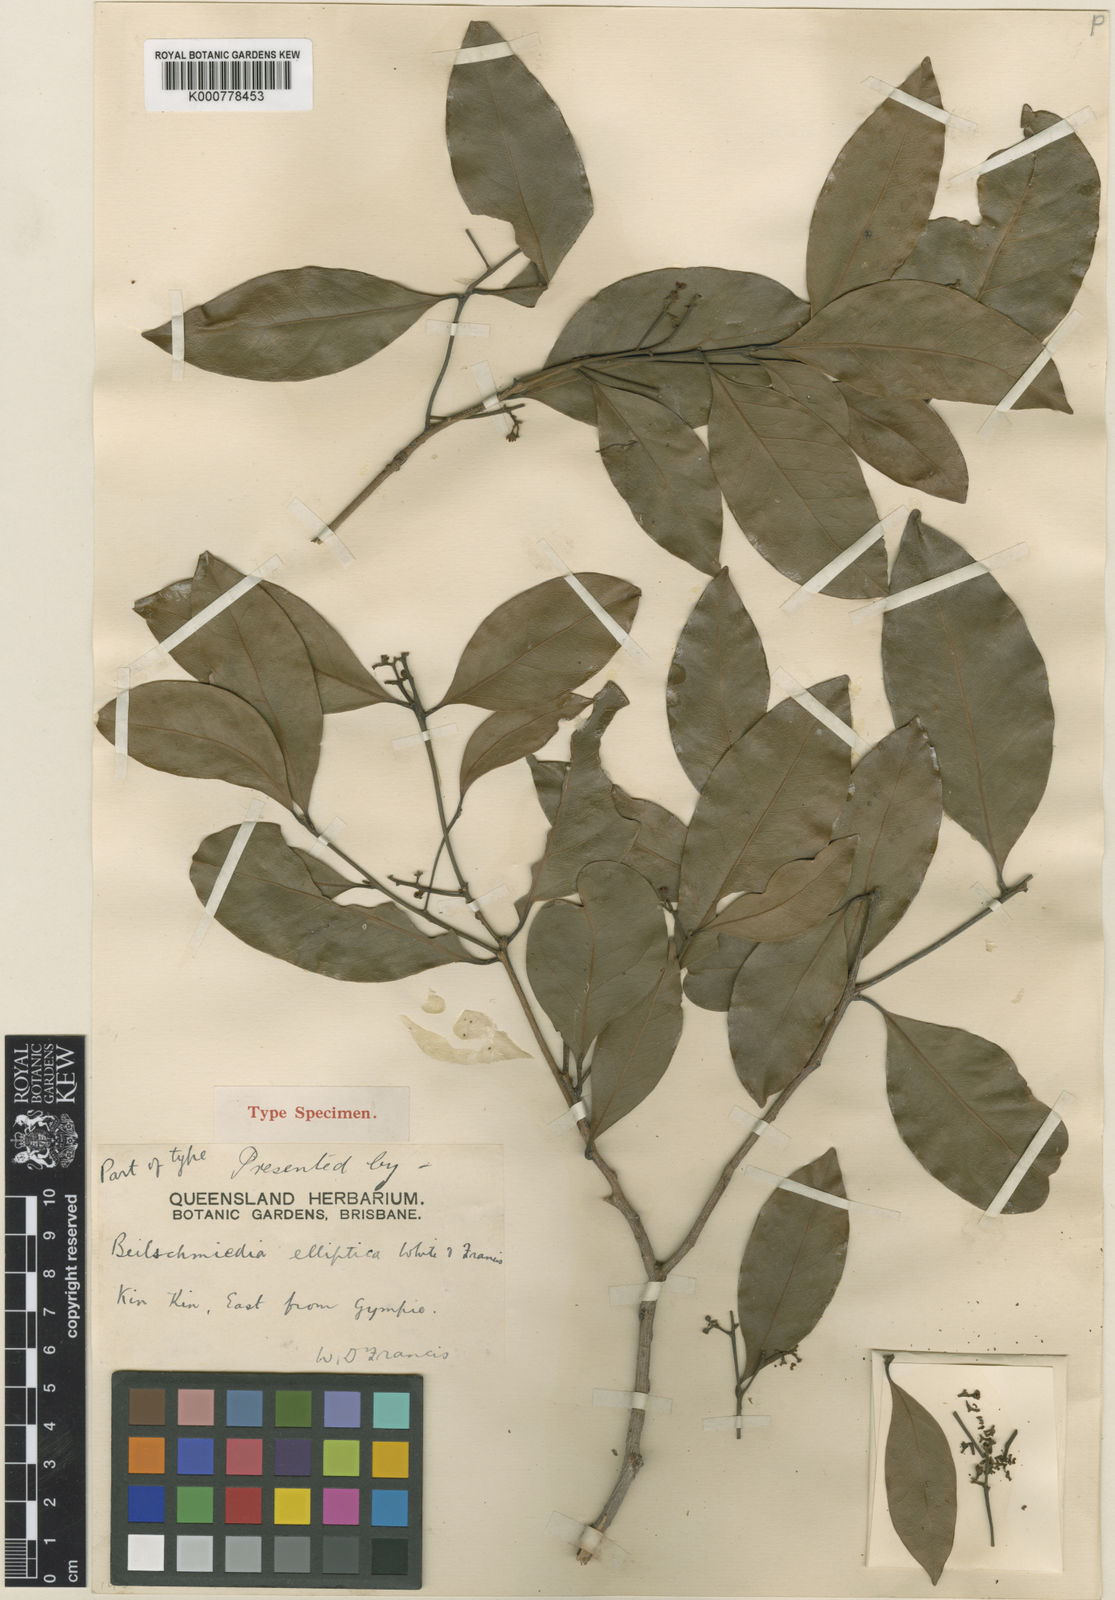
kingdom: Plantae
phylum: Tracheophyta
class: Magnoliopsida
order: Laurales
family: Lauraceae
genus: Beilschmiedia
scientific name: Beilschmiedia elliptica
